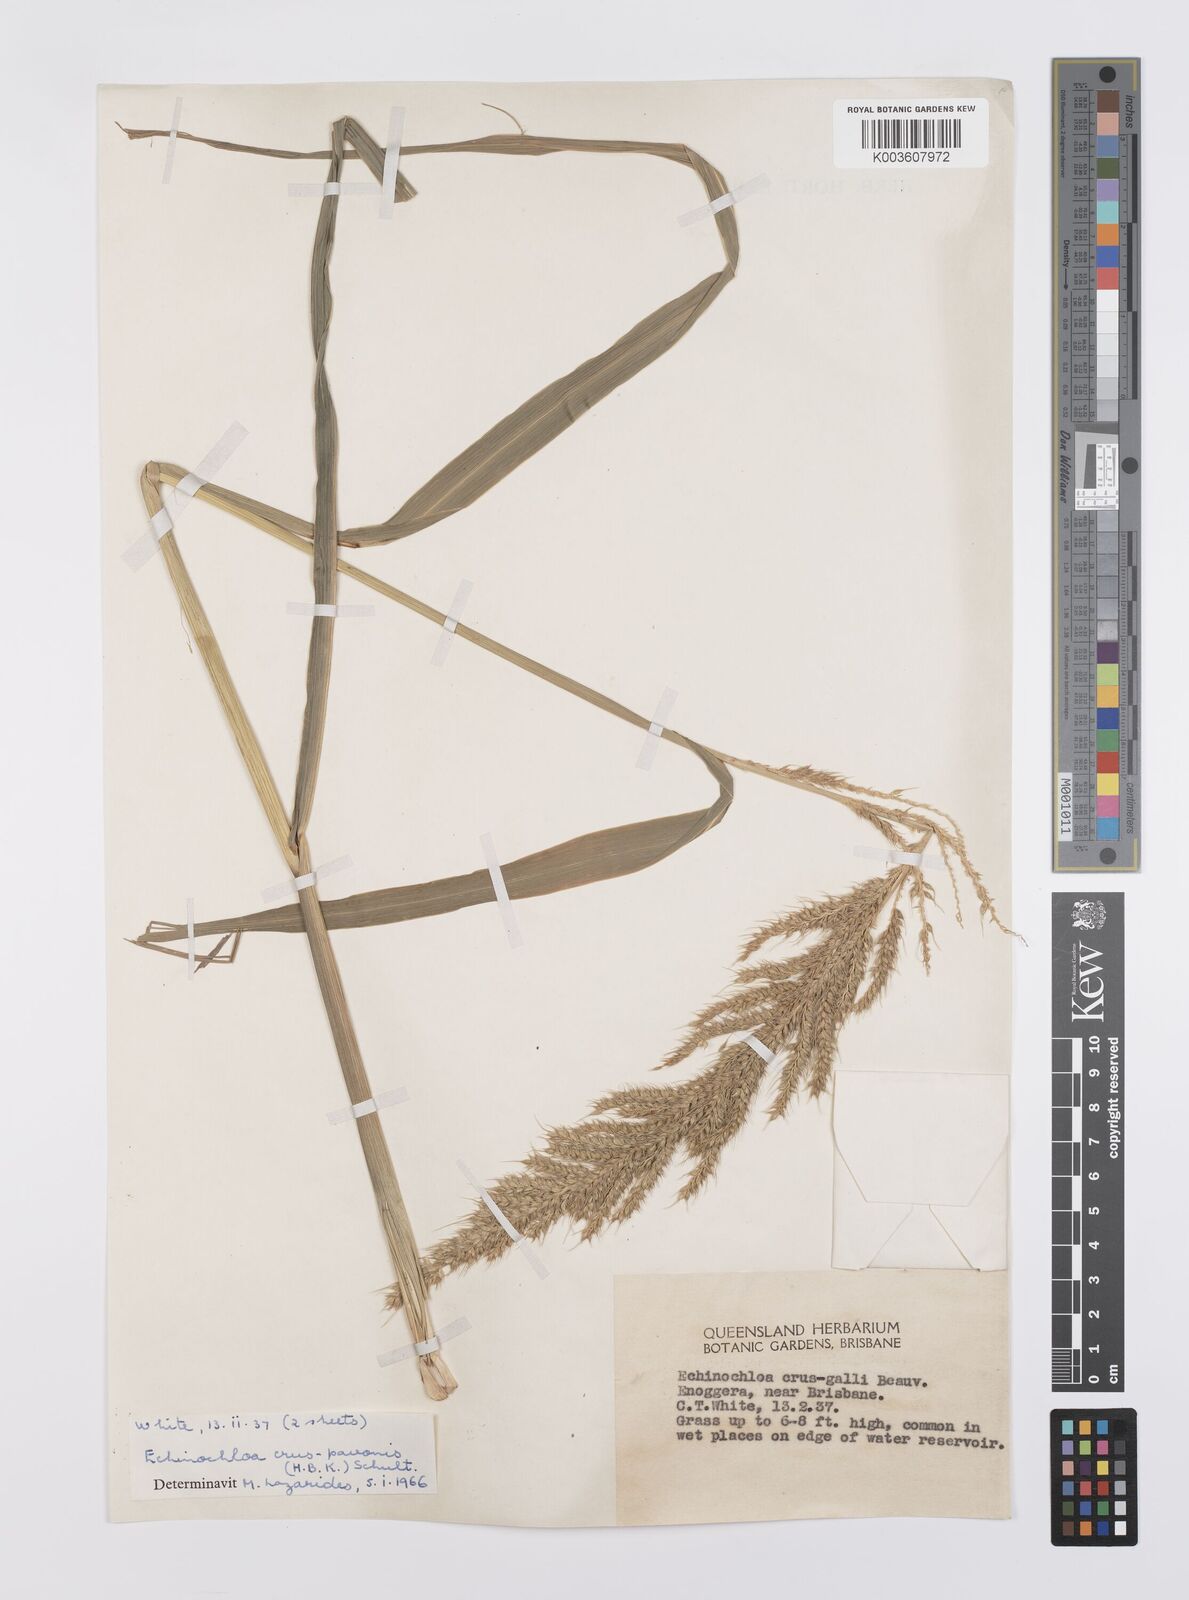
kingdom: Plantae
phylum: Tracheophyta
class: Liliopsida
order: Poales
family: Poaceae
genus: Echinochloa
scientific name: Echinochloa crus-galli
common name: Cockspur
